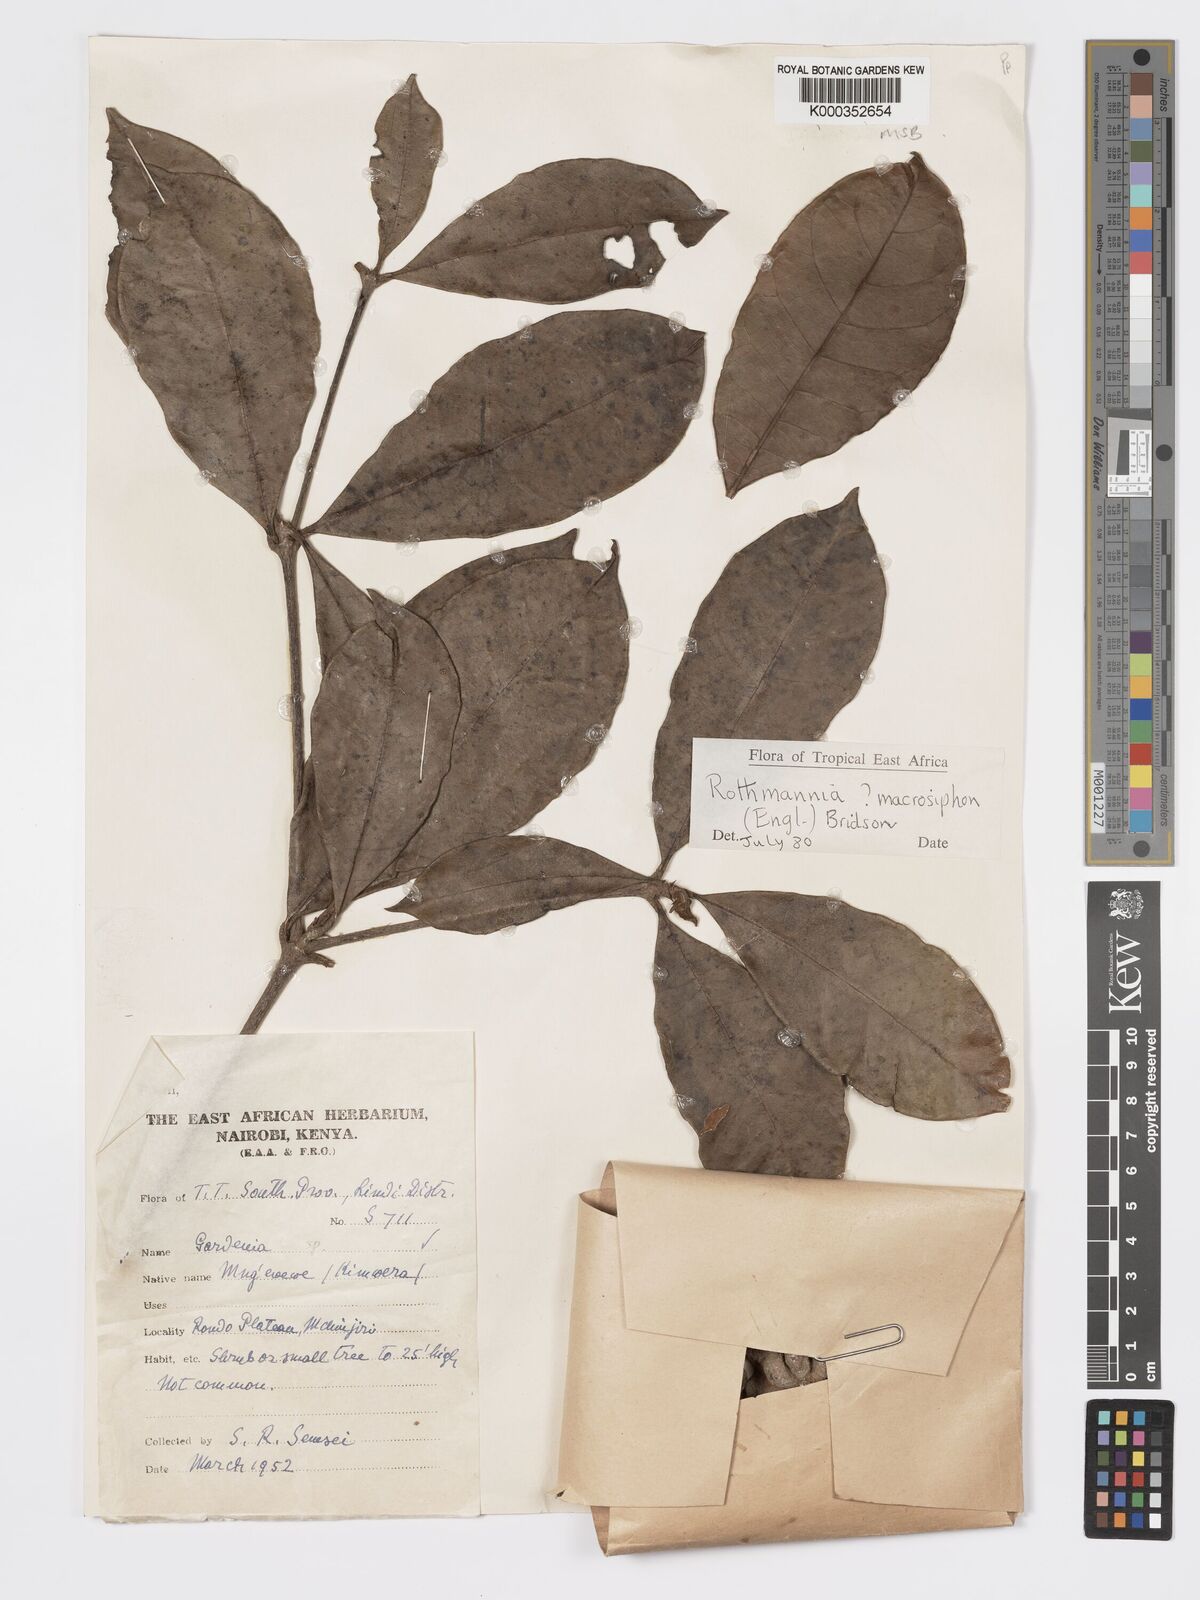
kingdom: Plantae
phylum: Tracheophyta
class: Magnoliopsida
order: Gentianales
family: Rubiaceae
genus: Rothmannia
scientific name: Rothmannia macrosiphon
